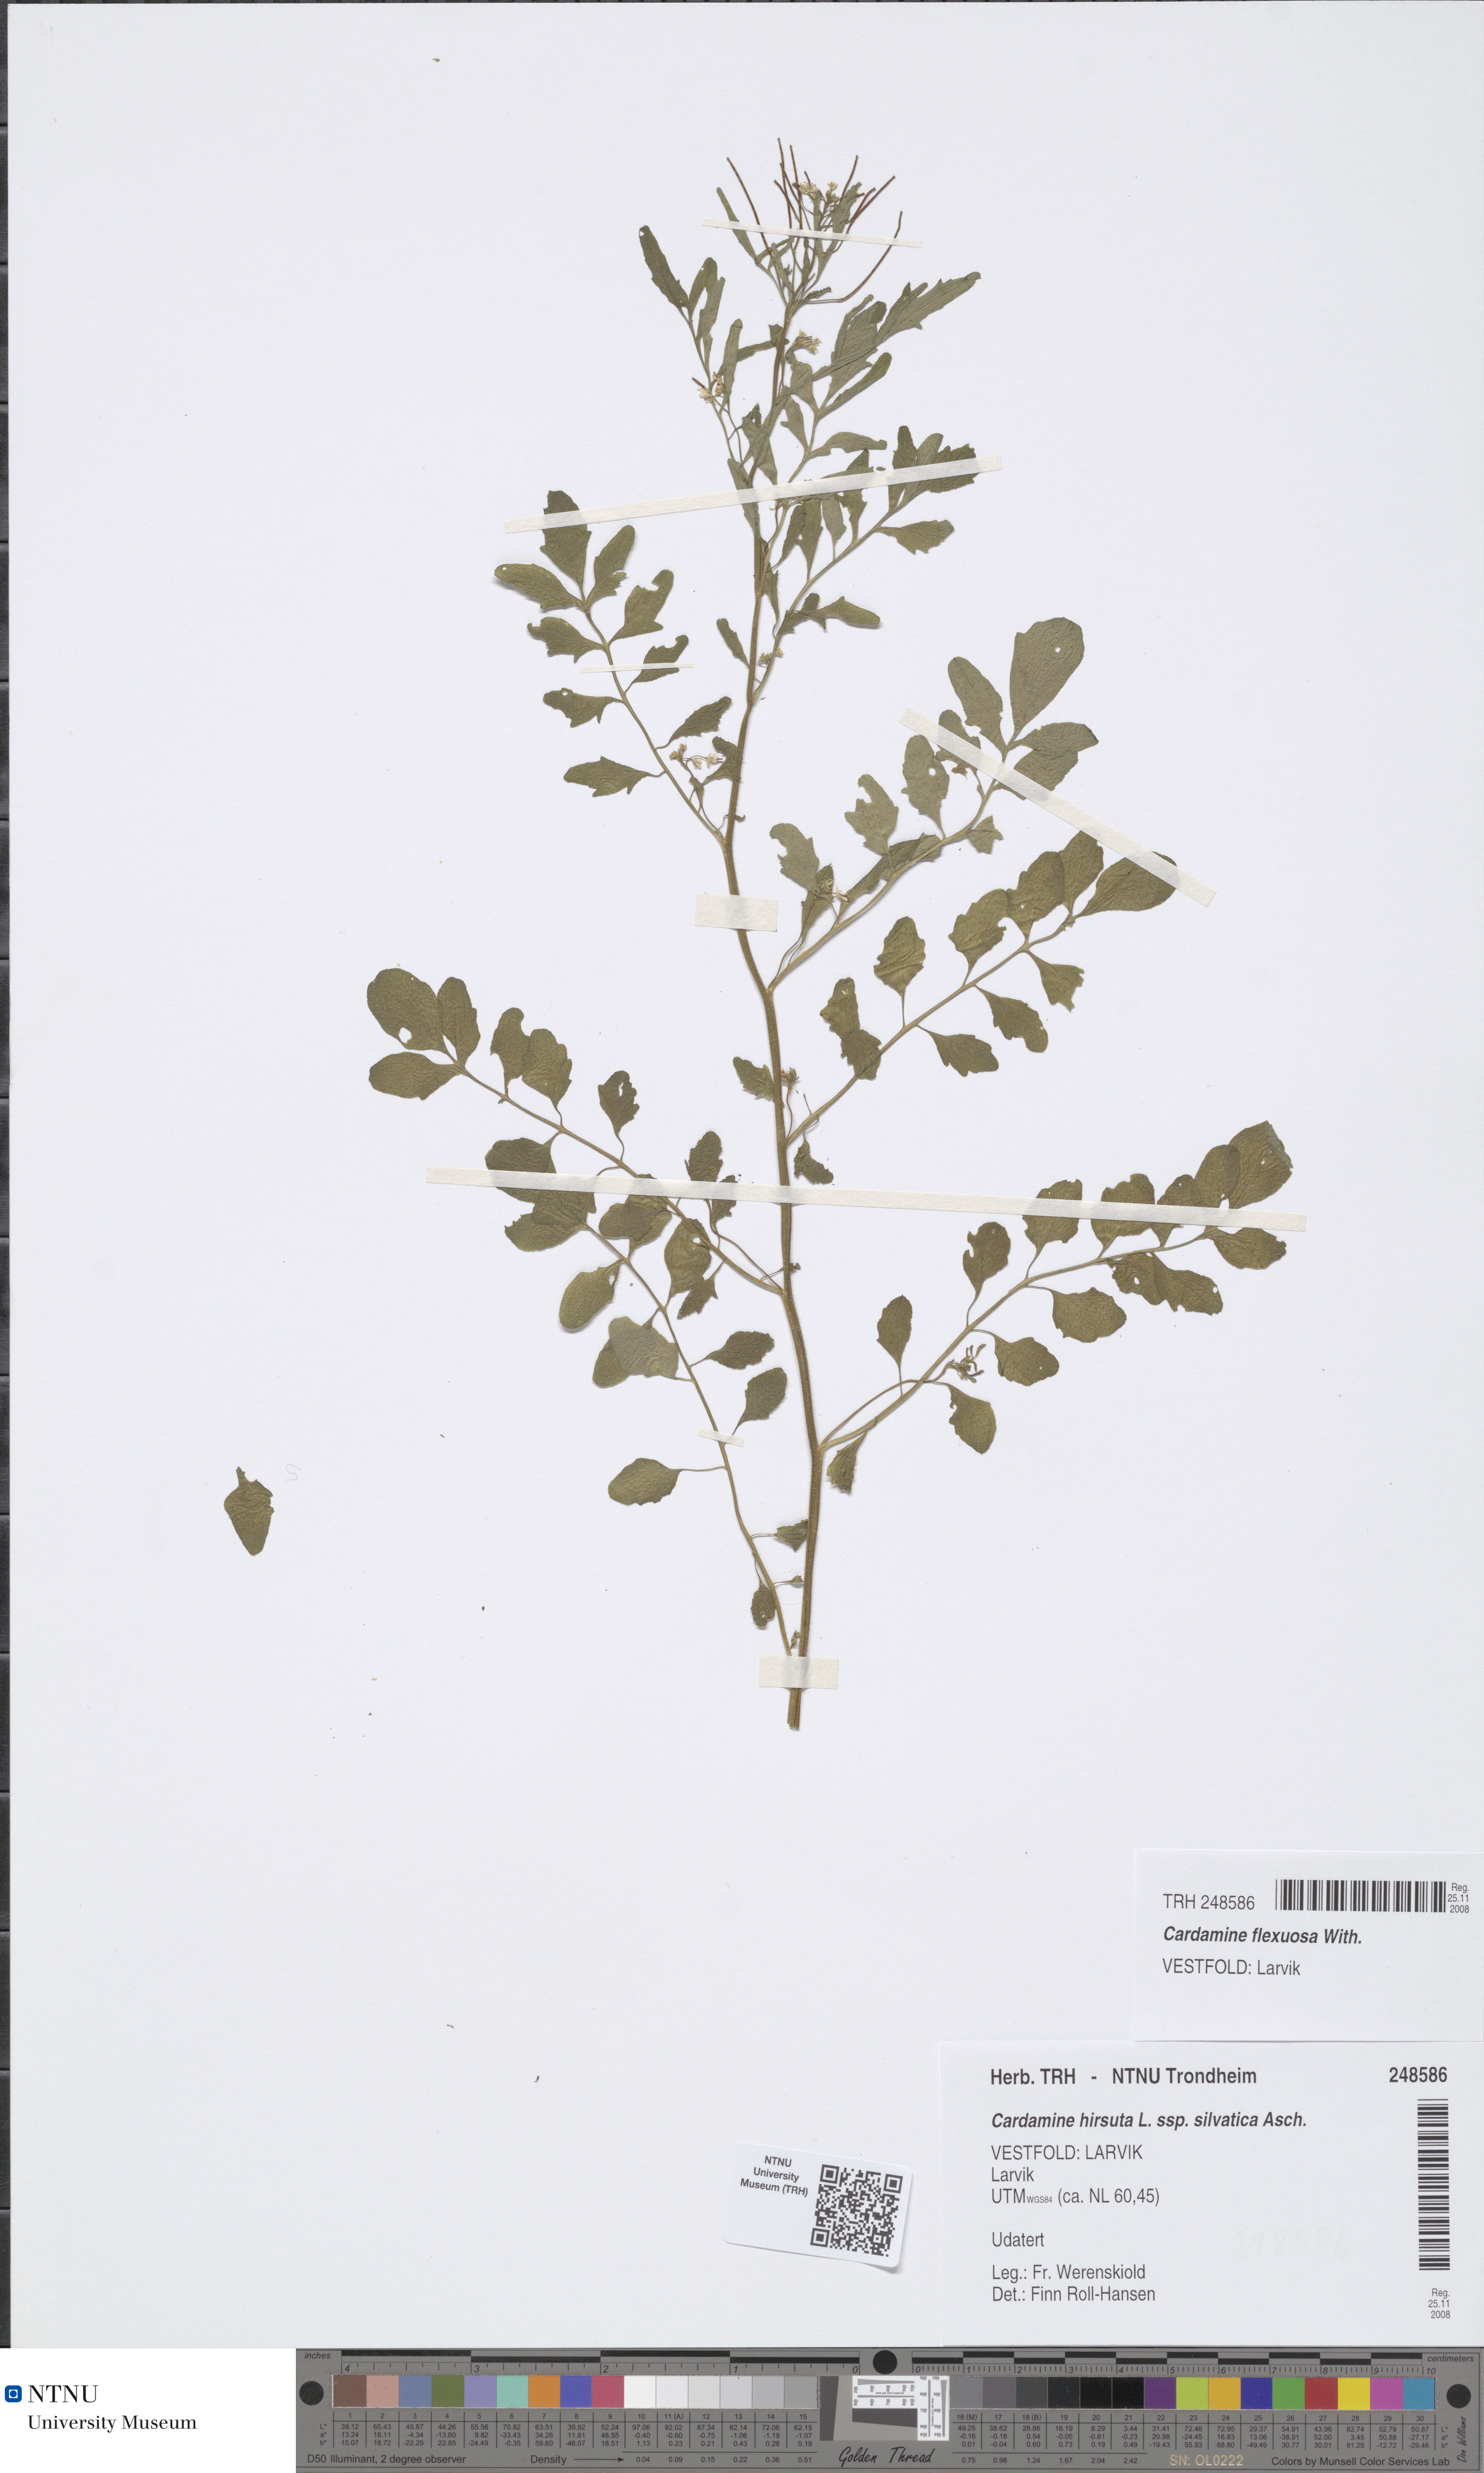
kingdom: Plantae
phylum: Tracheophyta
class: Magnoliopsida
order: Brassicales
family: Brassicaceae
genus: Cardamine
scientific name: Cardamine flexuosa
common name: Woodland bittercress
